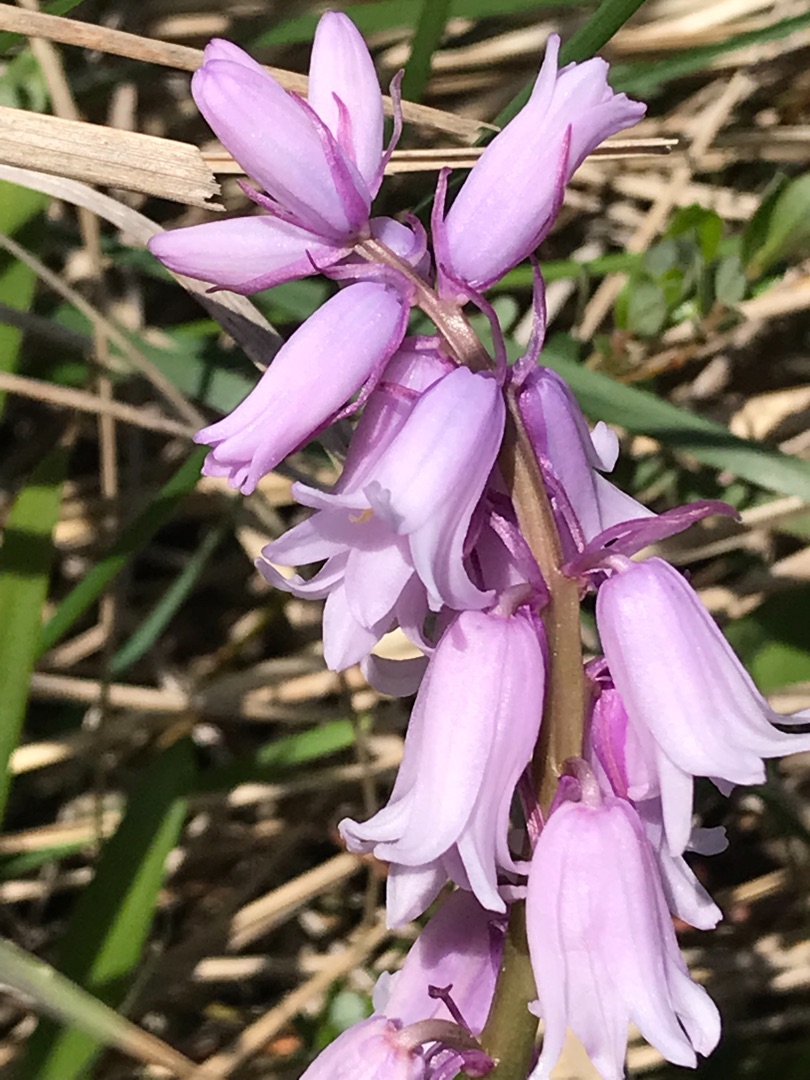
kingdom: Plantae
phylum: Tracheophyta
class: Liliopsida
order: Asparagales
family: Asparagaceae
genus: Hyacinthoides
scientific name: Hyacinthoides non-scripta
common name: Klokke-skilla
